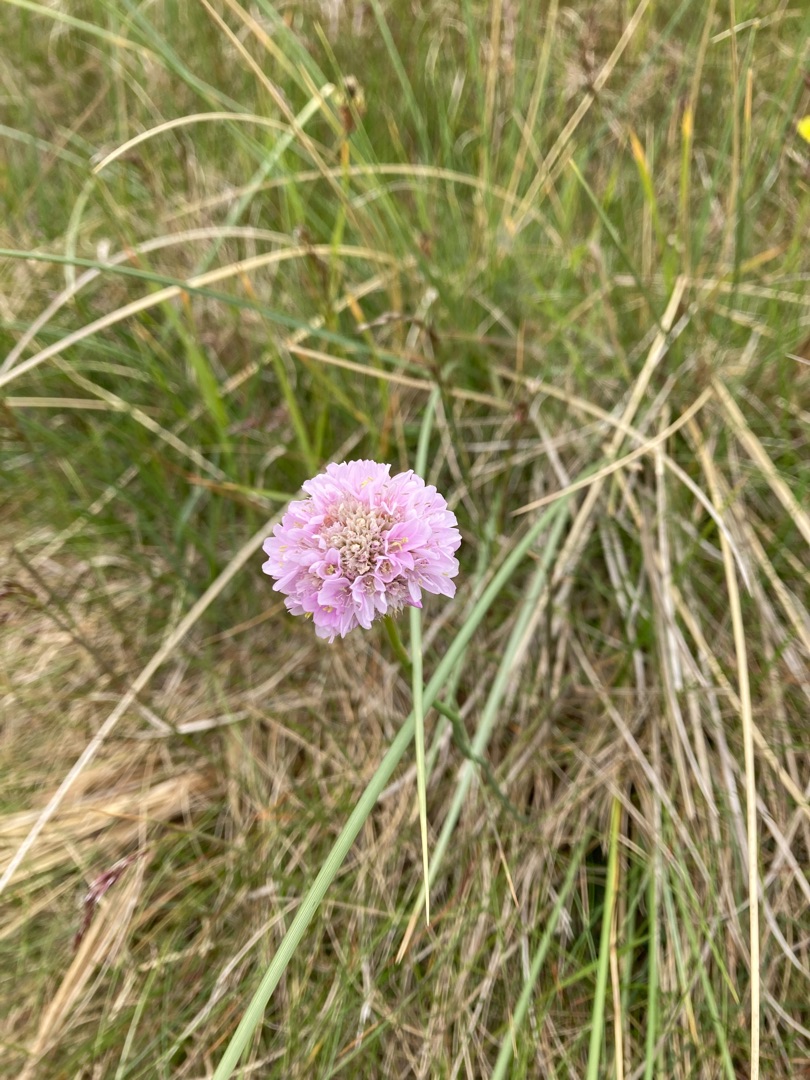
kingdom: Plantae
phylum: Tracheophyta
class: Magnoliopsida
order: Caryophyllales
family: Plumbaginaceae
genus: Armeria
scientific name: Armeria maritima
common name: Engelskgræs
